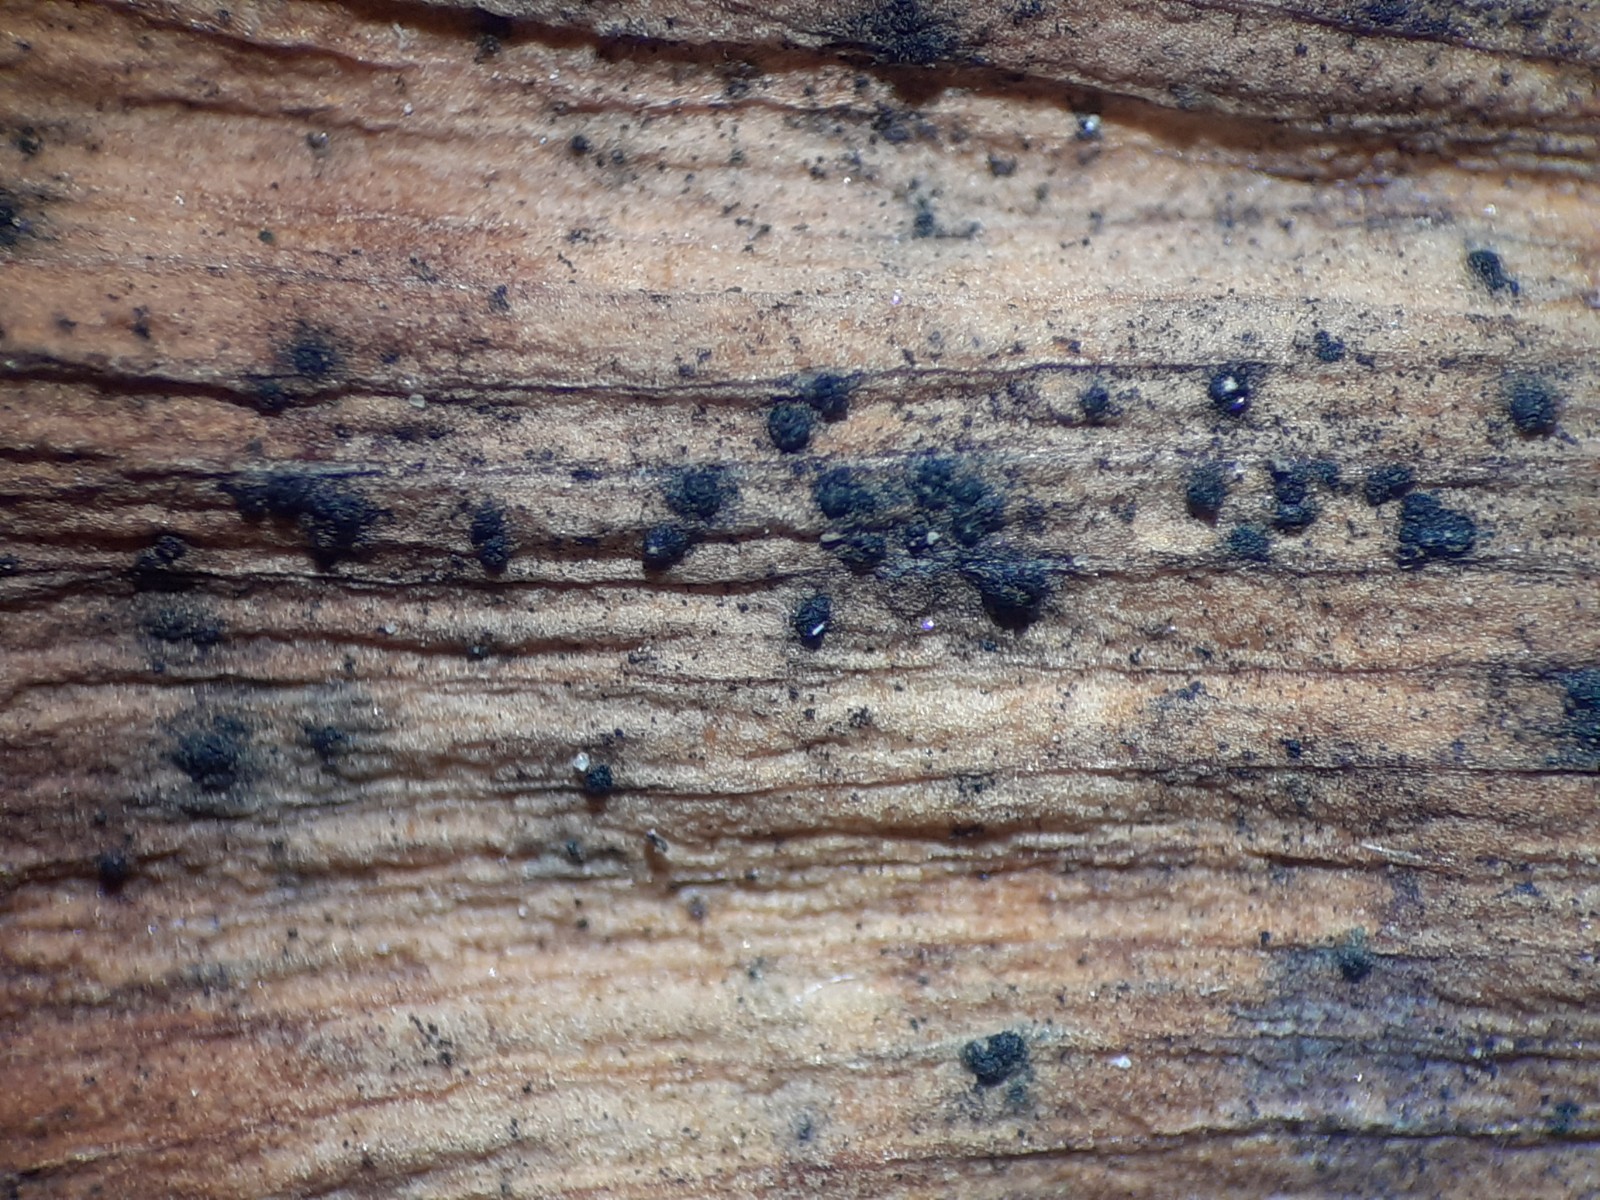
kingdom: Fungi
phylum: Basidiomycota
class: Wallemiomycetes
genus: Bartheletia
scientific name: Bartheletia paradoxa
